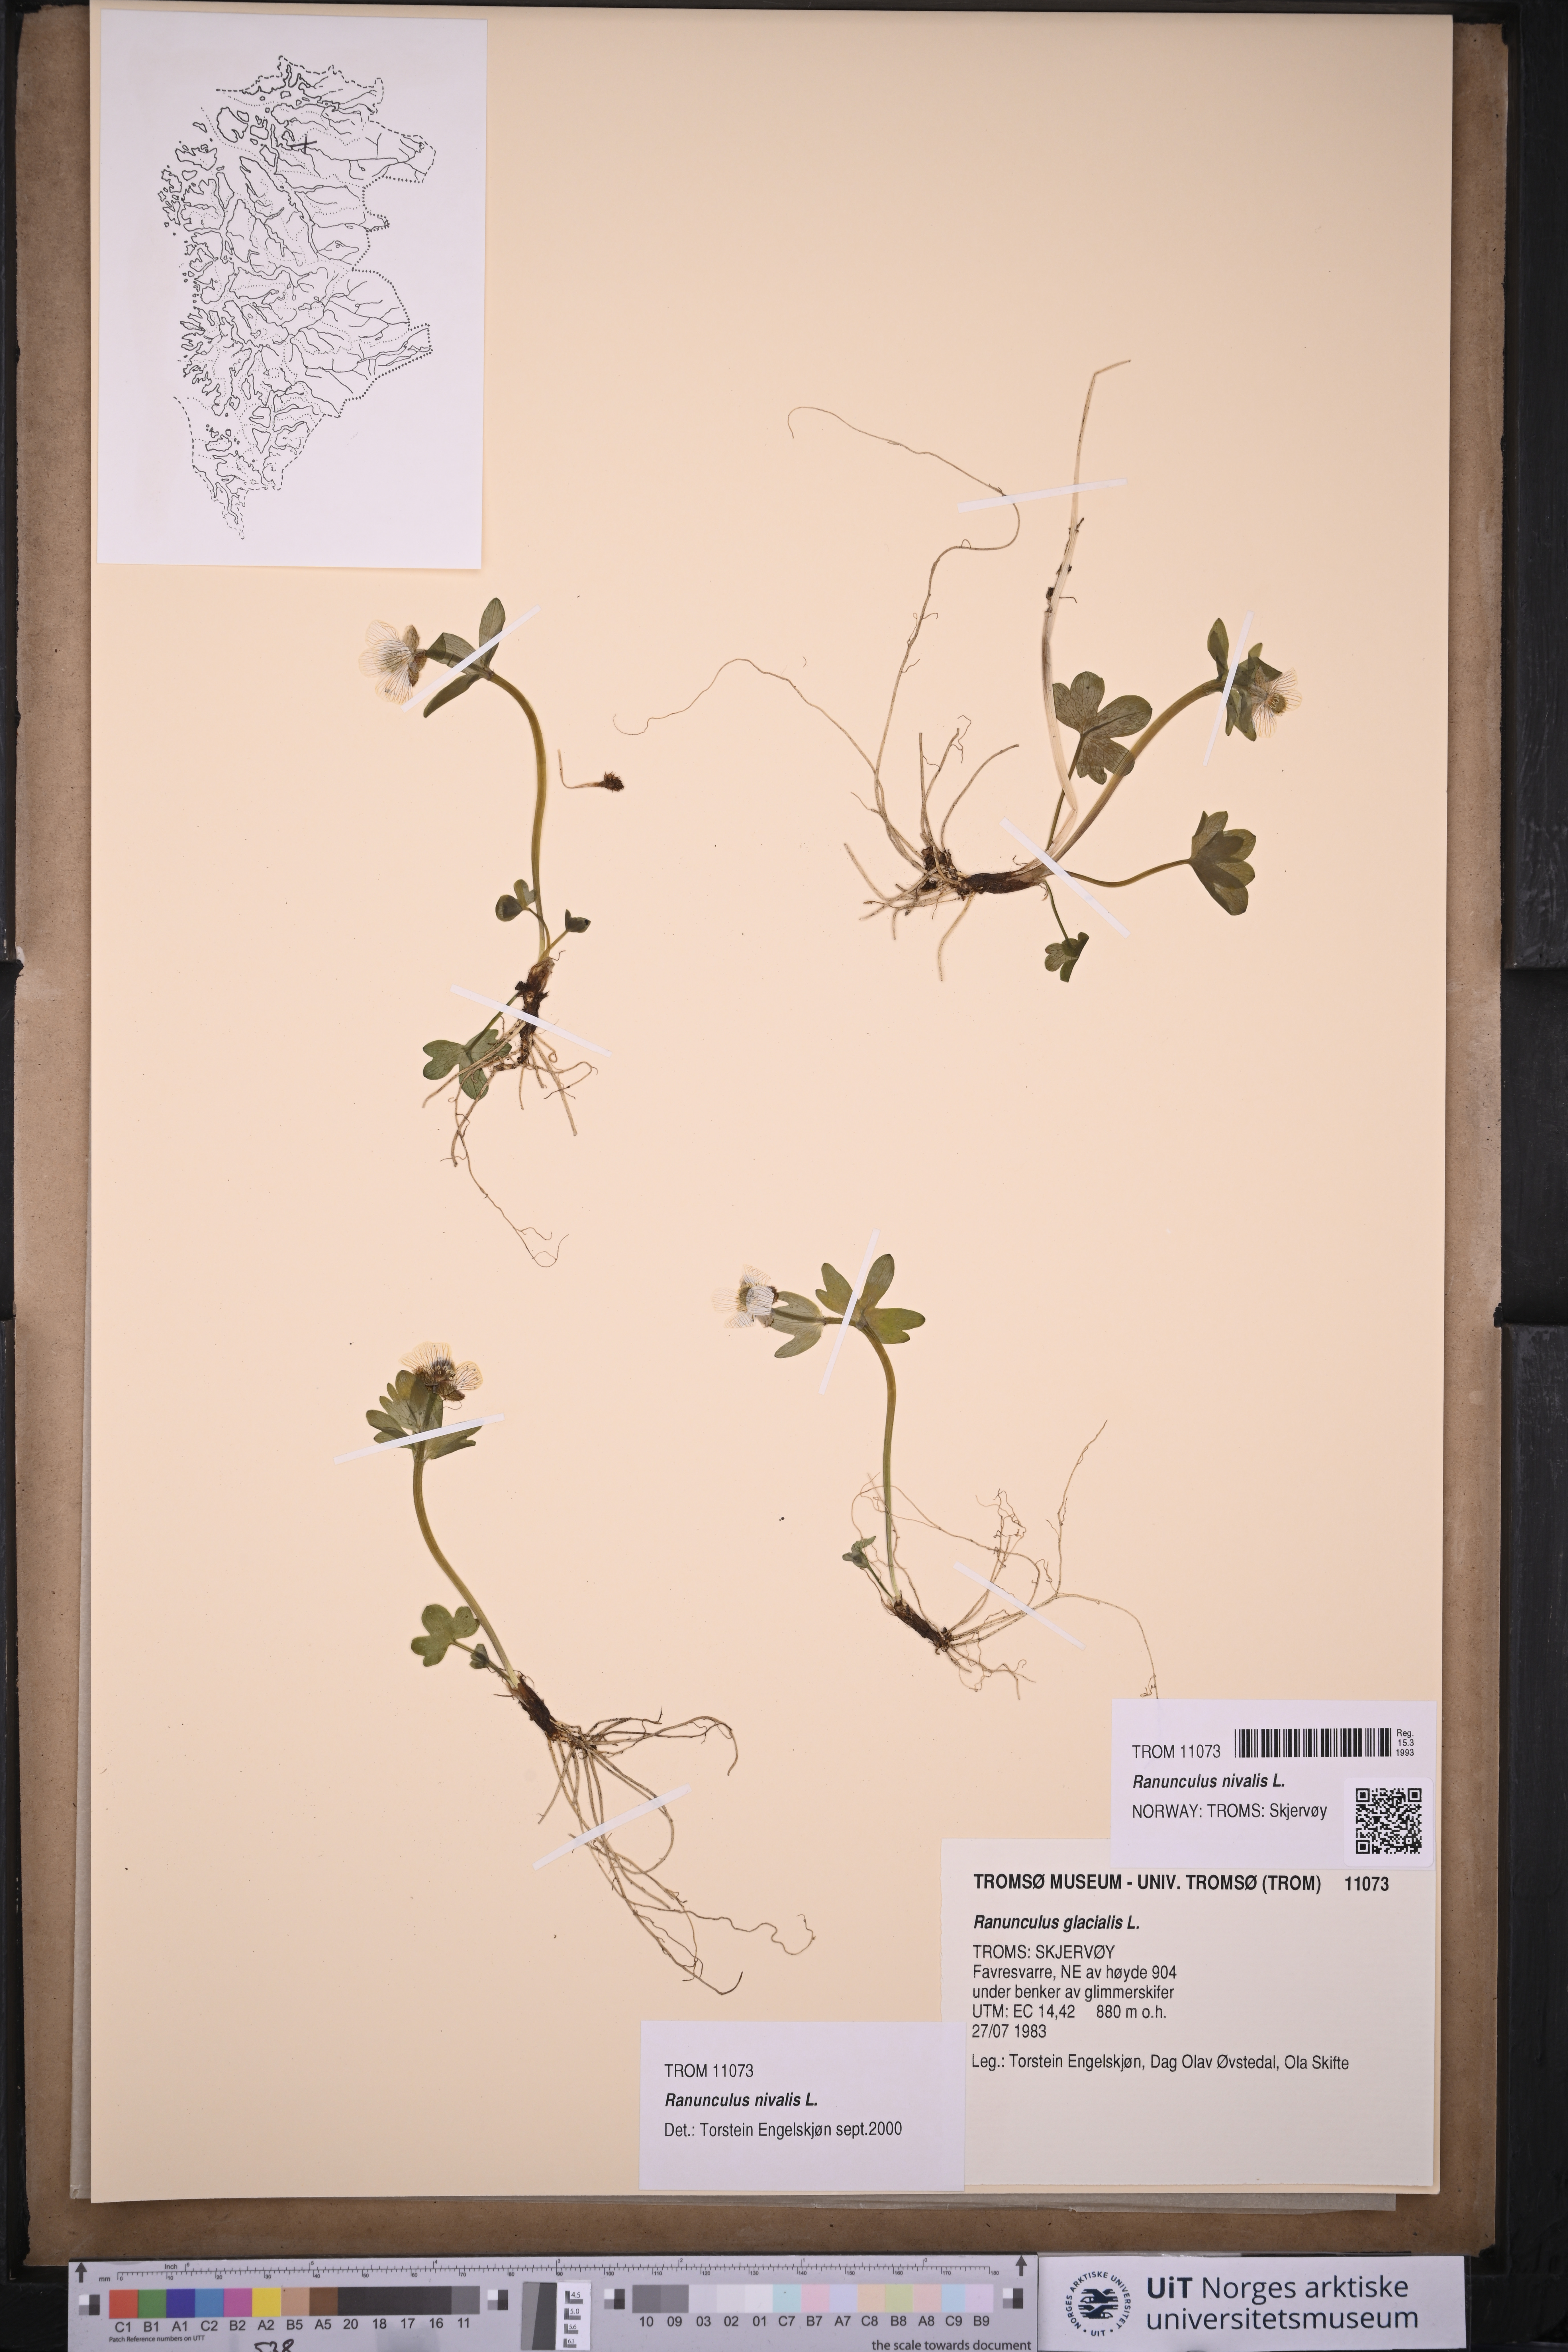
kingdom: Plantae
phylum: Tracheophyta
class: Magnoliopsida
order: Ranunculales
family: Ranunculaceae
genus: Ranunculus
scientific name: Ranunculus nivalis
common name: Snow buttercup
